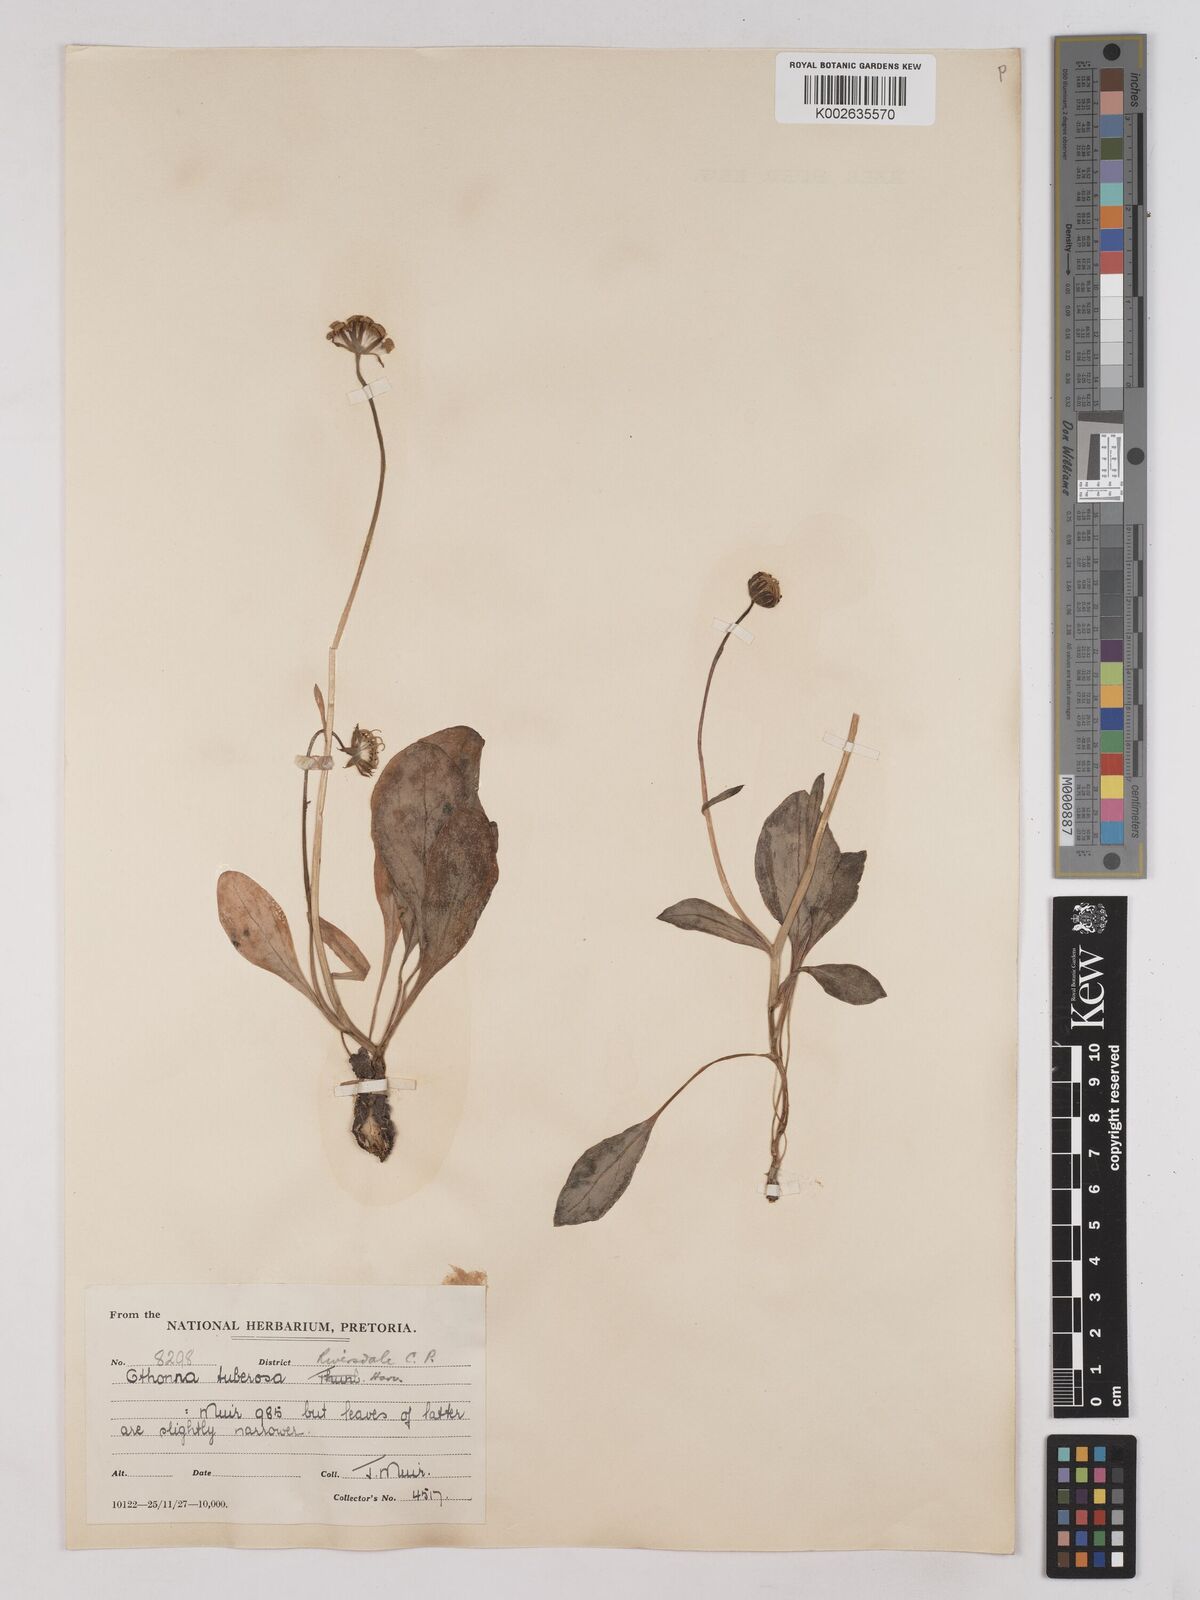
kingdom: Plantae
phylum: Tracheophyta
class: Magnoliopsida
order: Asterales
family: Asteraceae
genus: Othonna
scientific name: Othonna bulbosa
